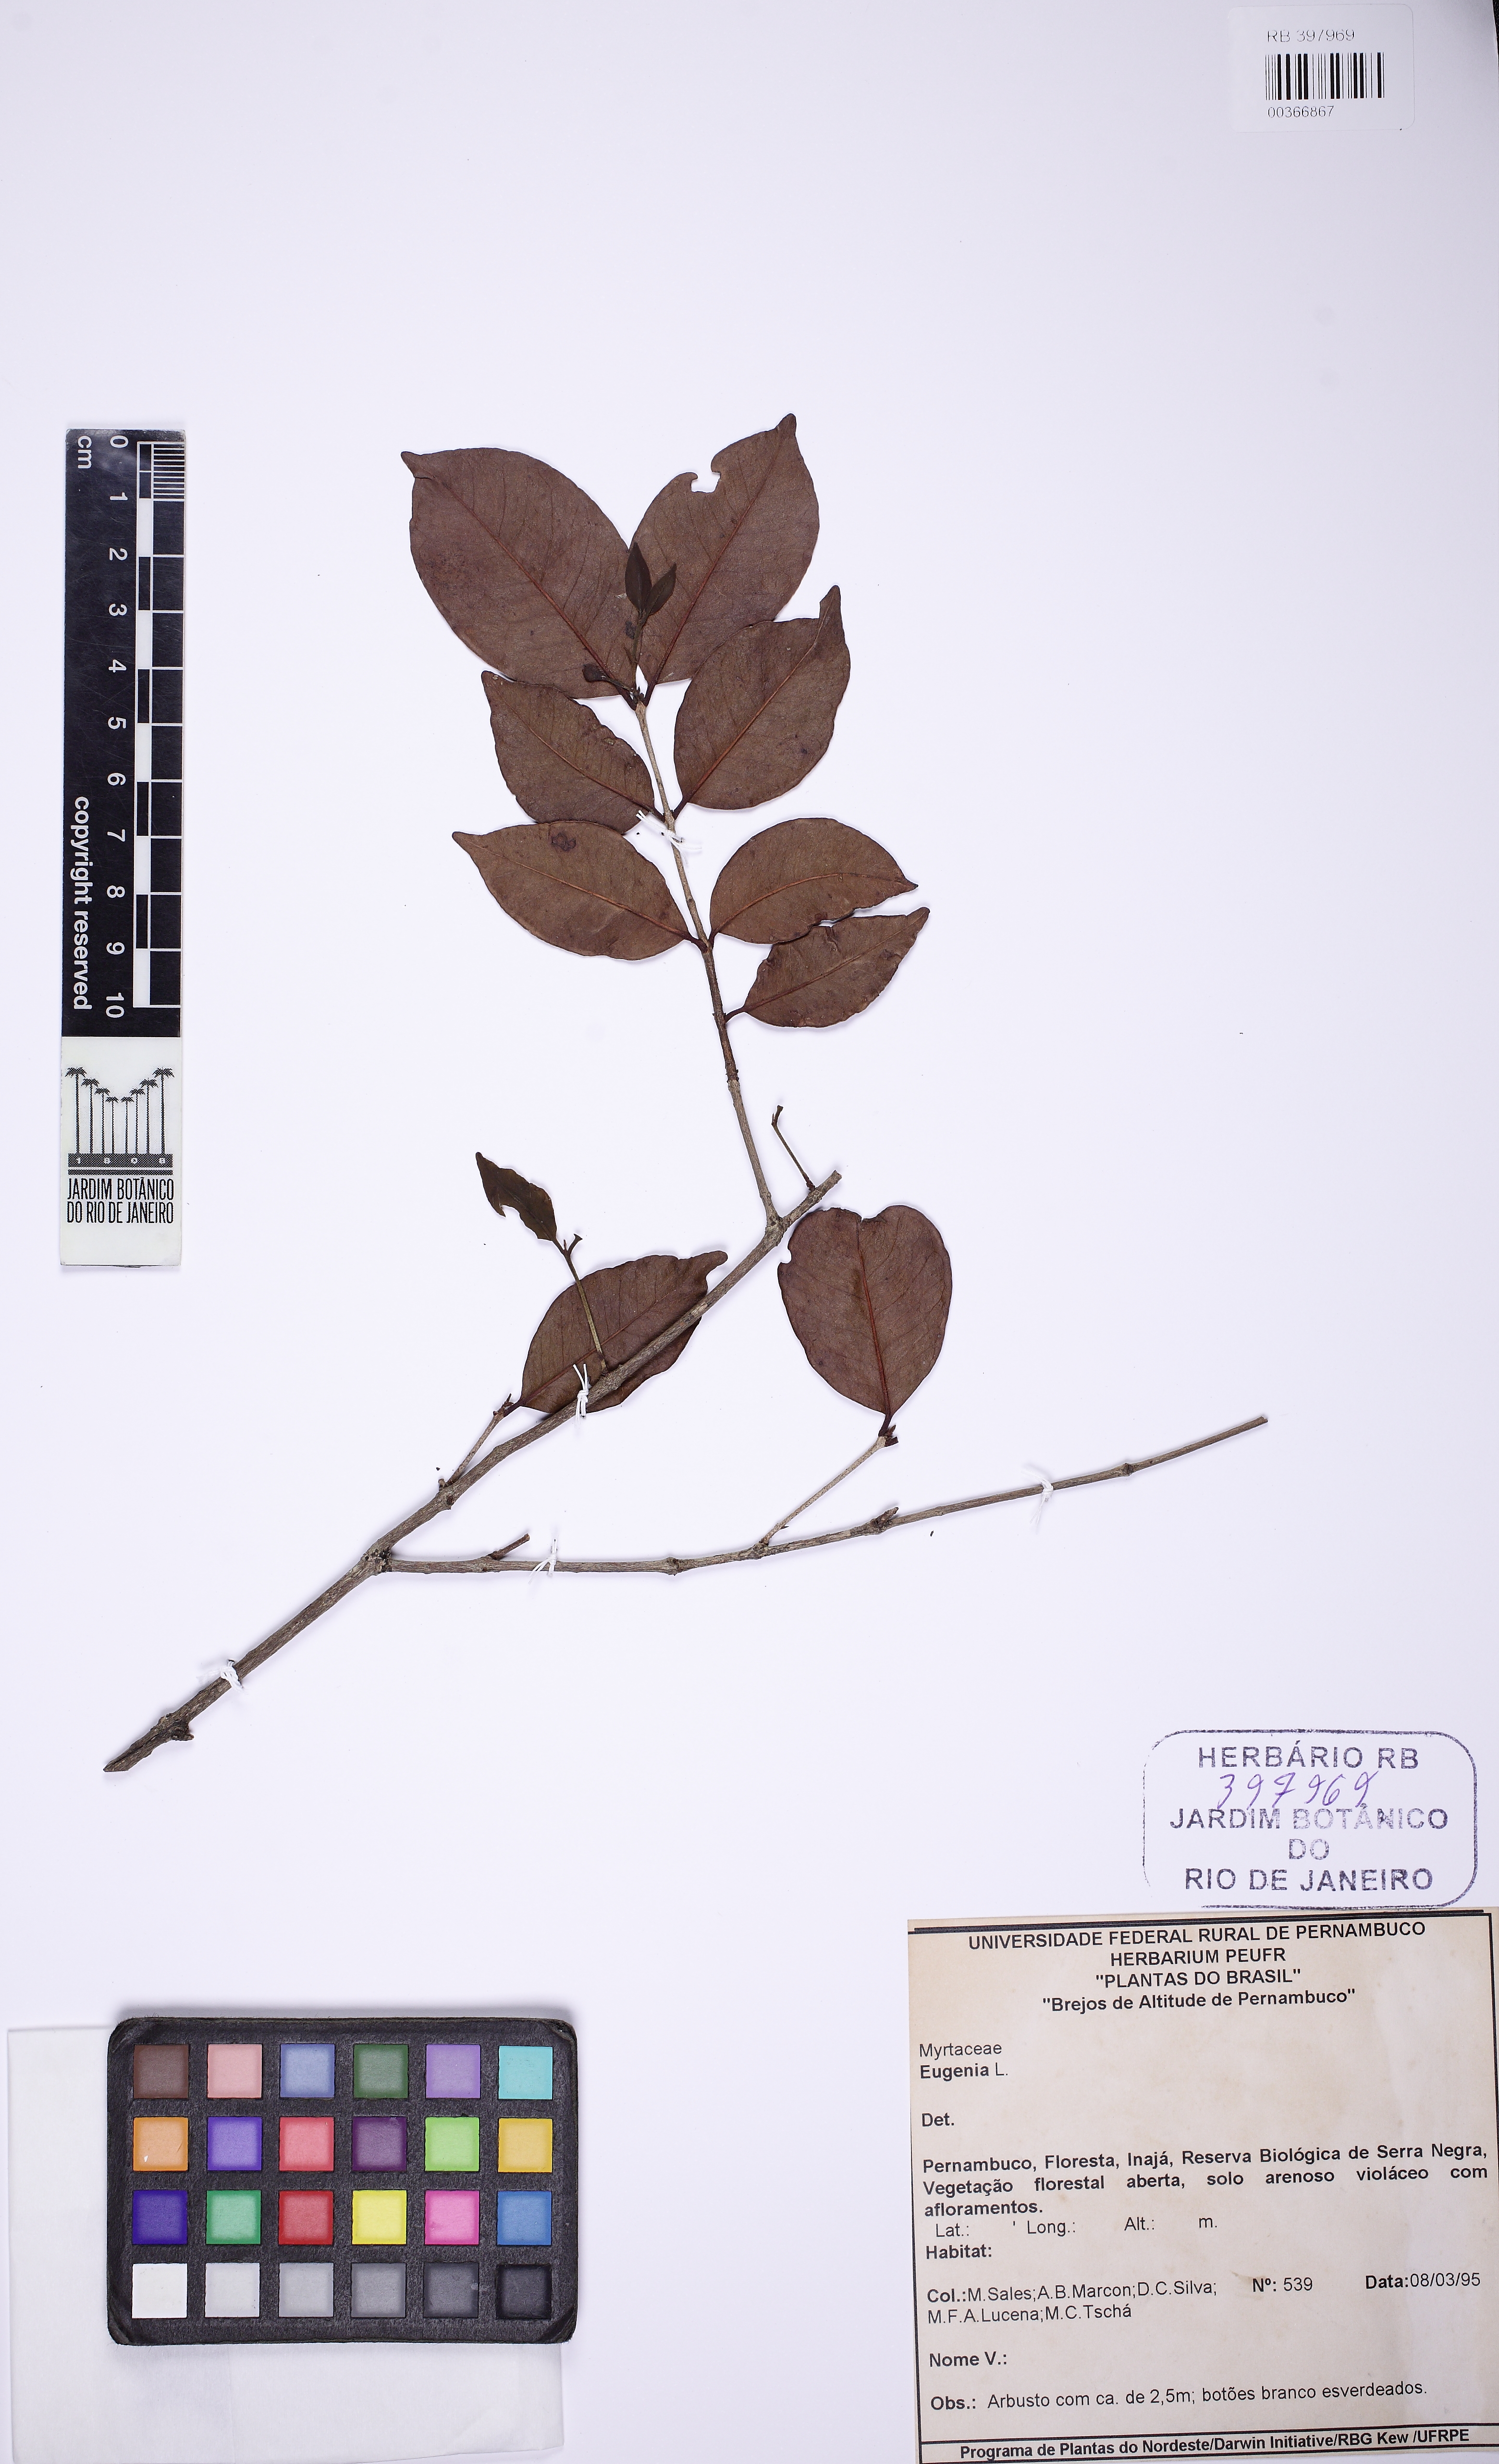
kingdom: Plantae
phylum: Tracheophyta
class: Magnoliopsida
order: Myrtales
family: Myrtaceae
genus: Eugenia
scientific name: Eugenia
